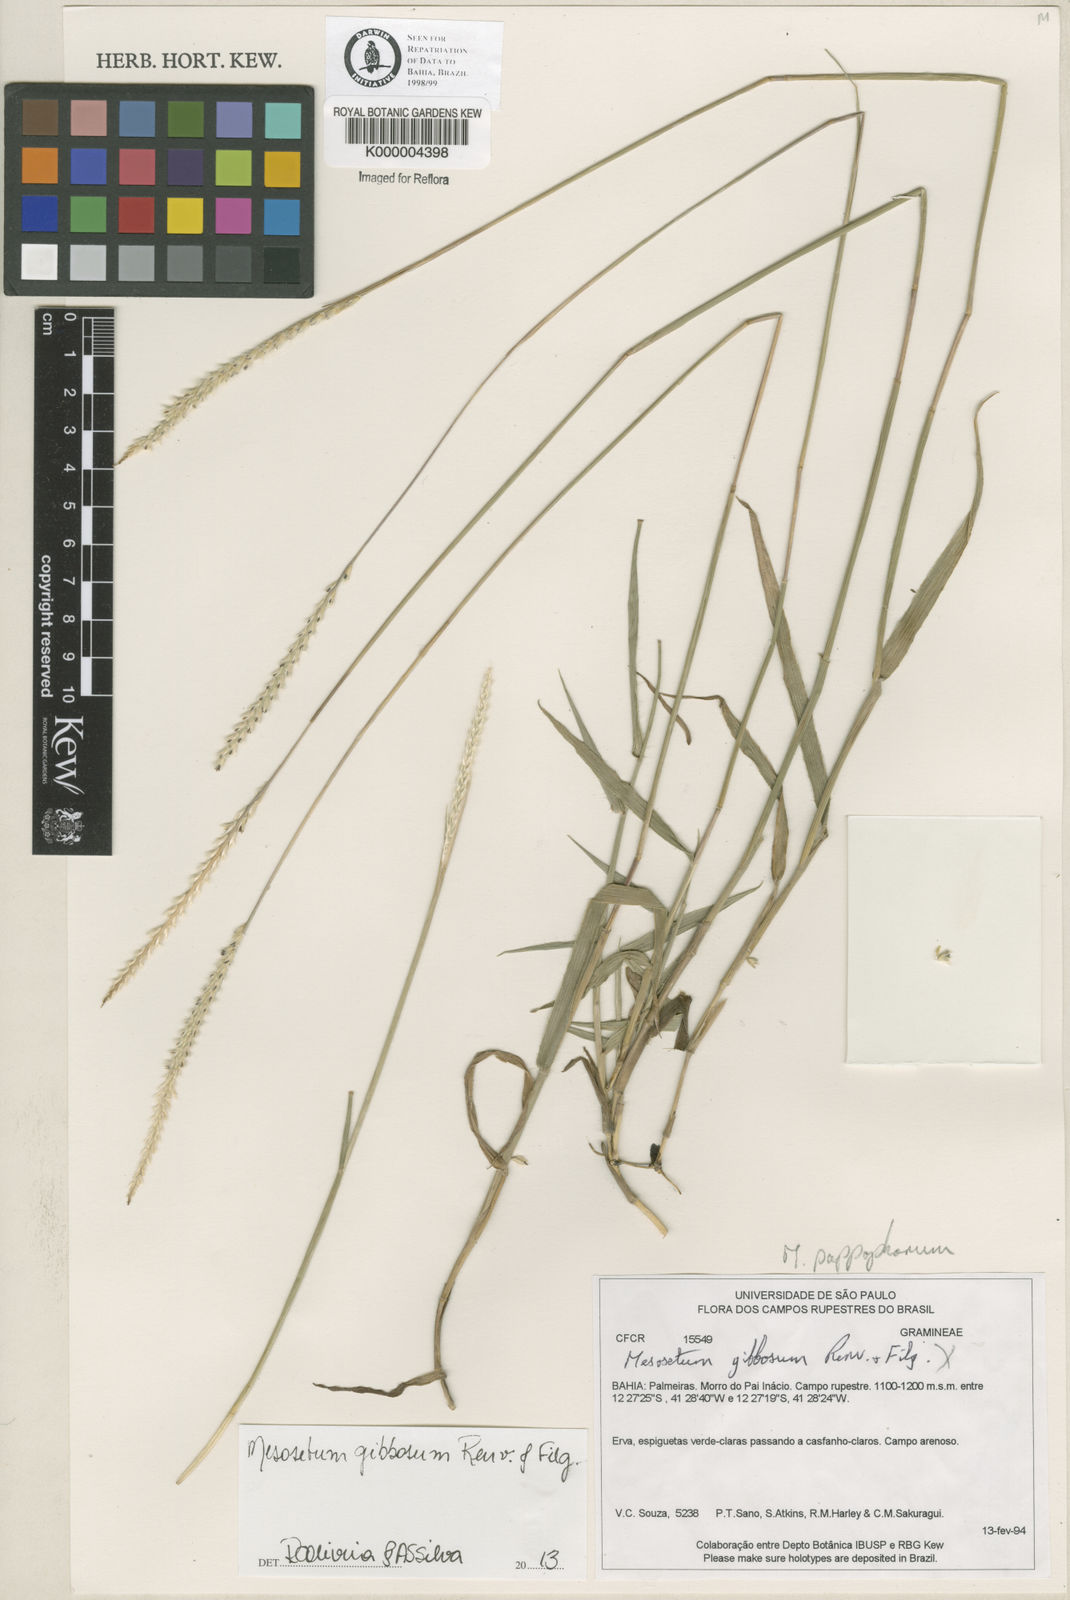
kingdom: Plantae
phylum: Tracheophyta
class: Liliopsida
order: Poales
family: Poaceae
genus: Mesosetum
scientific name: Mesosetum pappophorum
